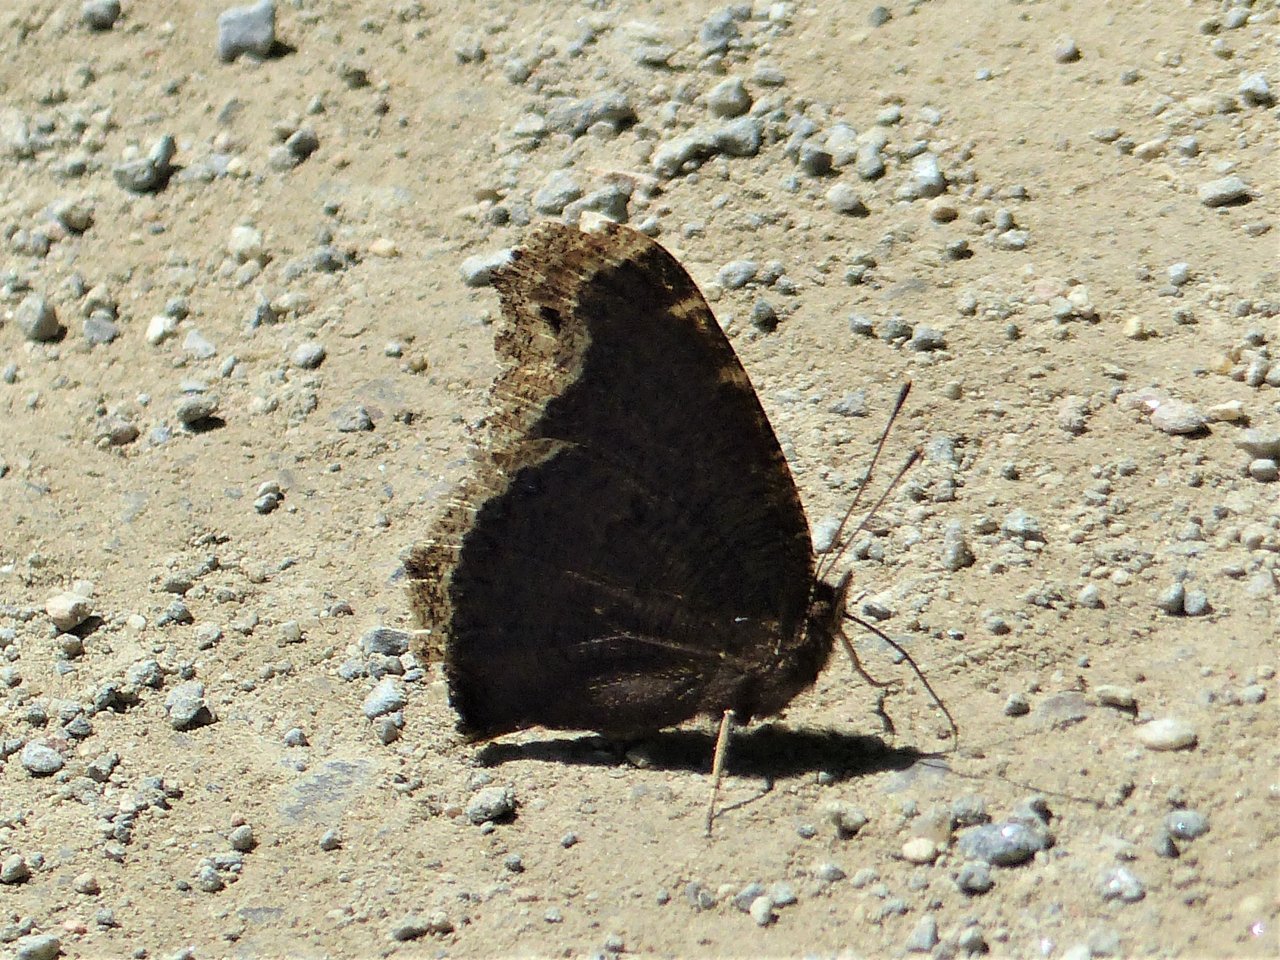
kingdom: Animalia
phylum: Arthropoda
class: Insecta
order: Lepidoptera
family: Nymphalidae
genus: Nymphalis
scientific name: Nymphalis antiopa
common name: Mourning Cloak
